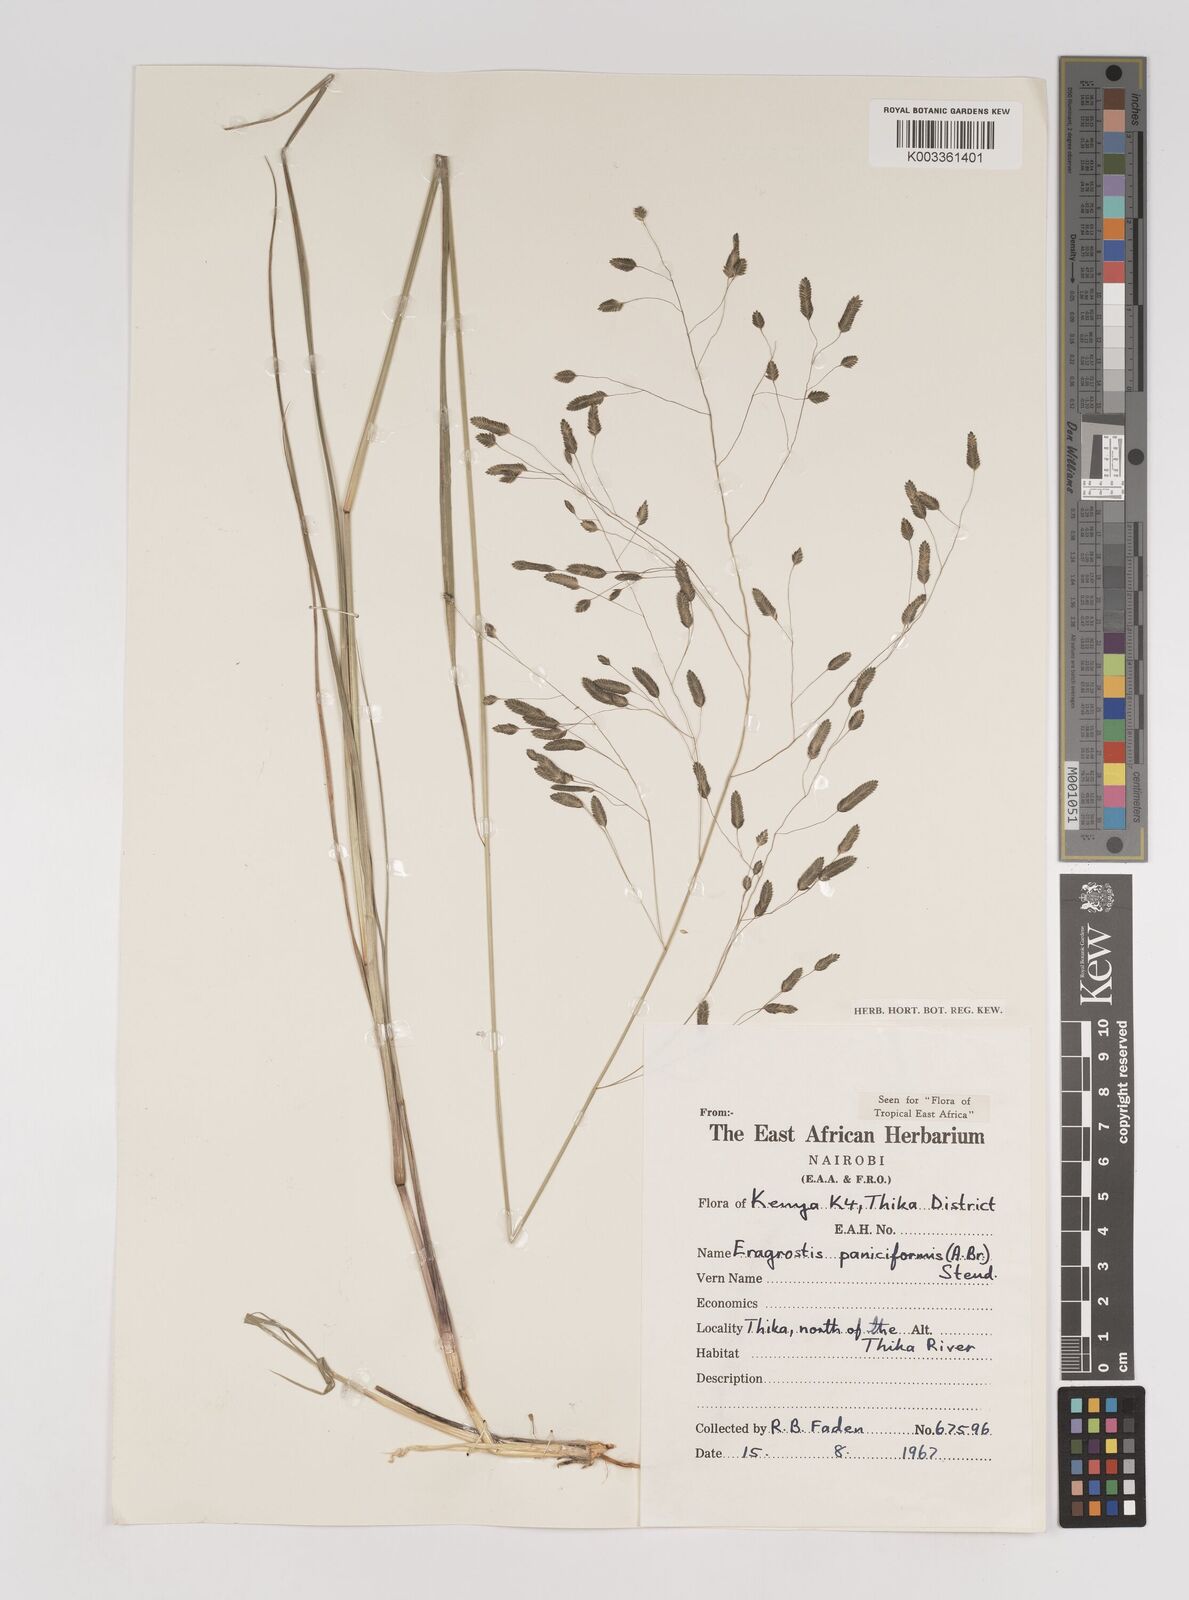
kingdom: Plantae
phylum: Tracheophyta
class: Liliopsida
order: Poales
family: Poaceae
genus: Eragrostis
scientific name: Eragrostis paniciformis
